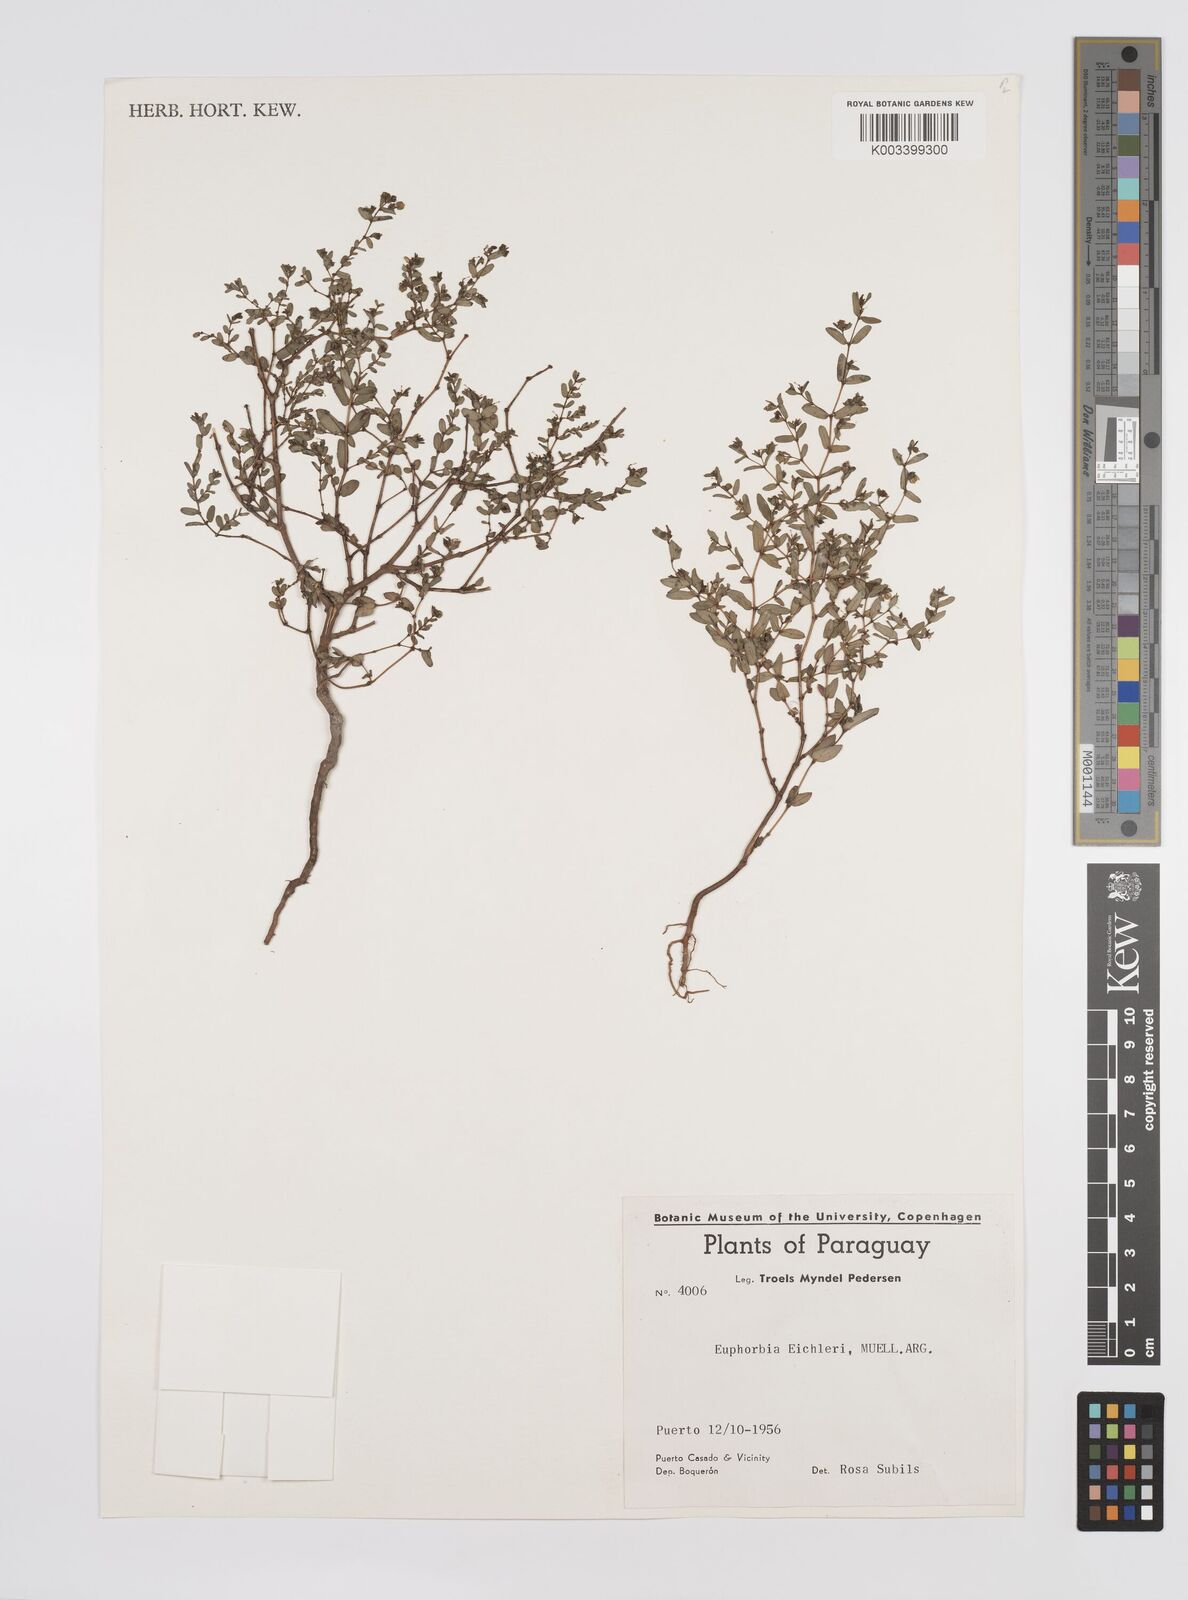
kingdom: Plantae
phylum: Tracheophyta
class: Magnoliopsida
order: Malpighiales
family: Euphorbiaceae
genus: Euphorbia
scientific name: Euphorbia eichleri
